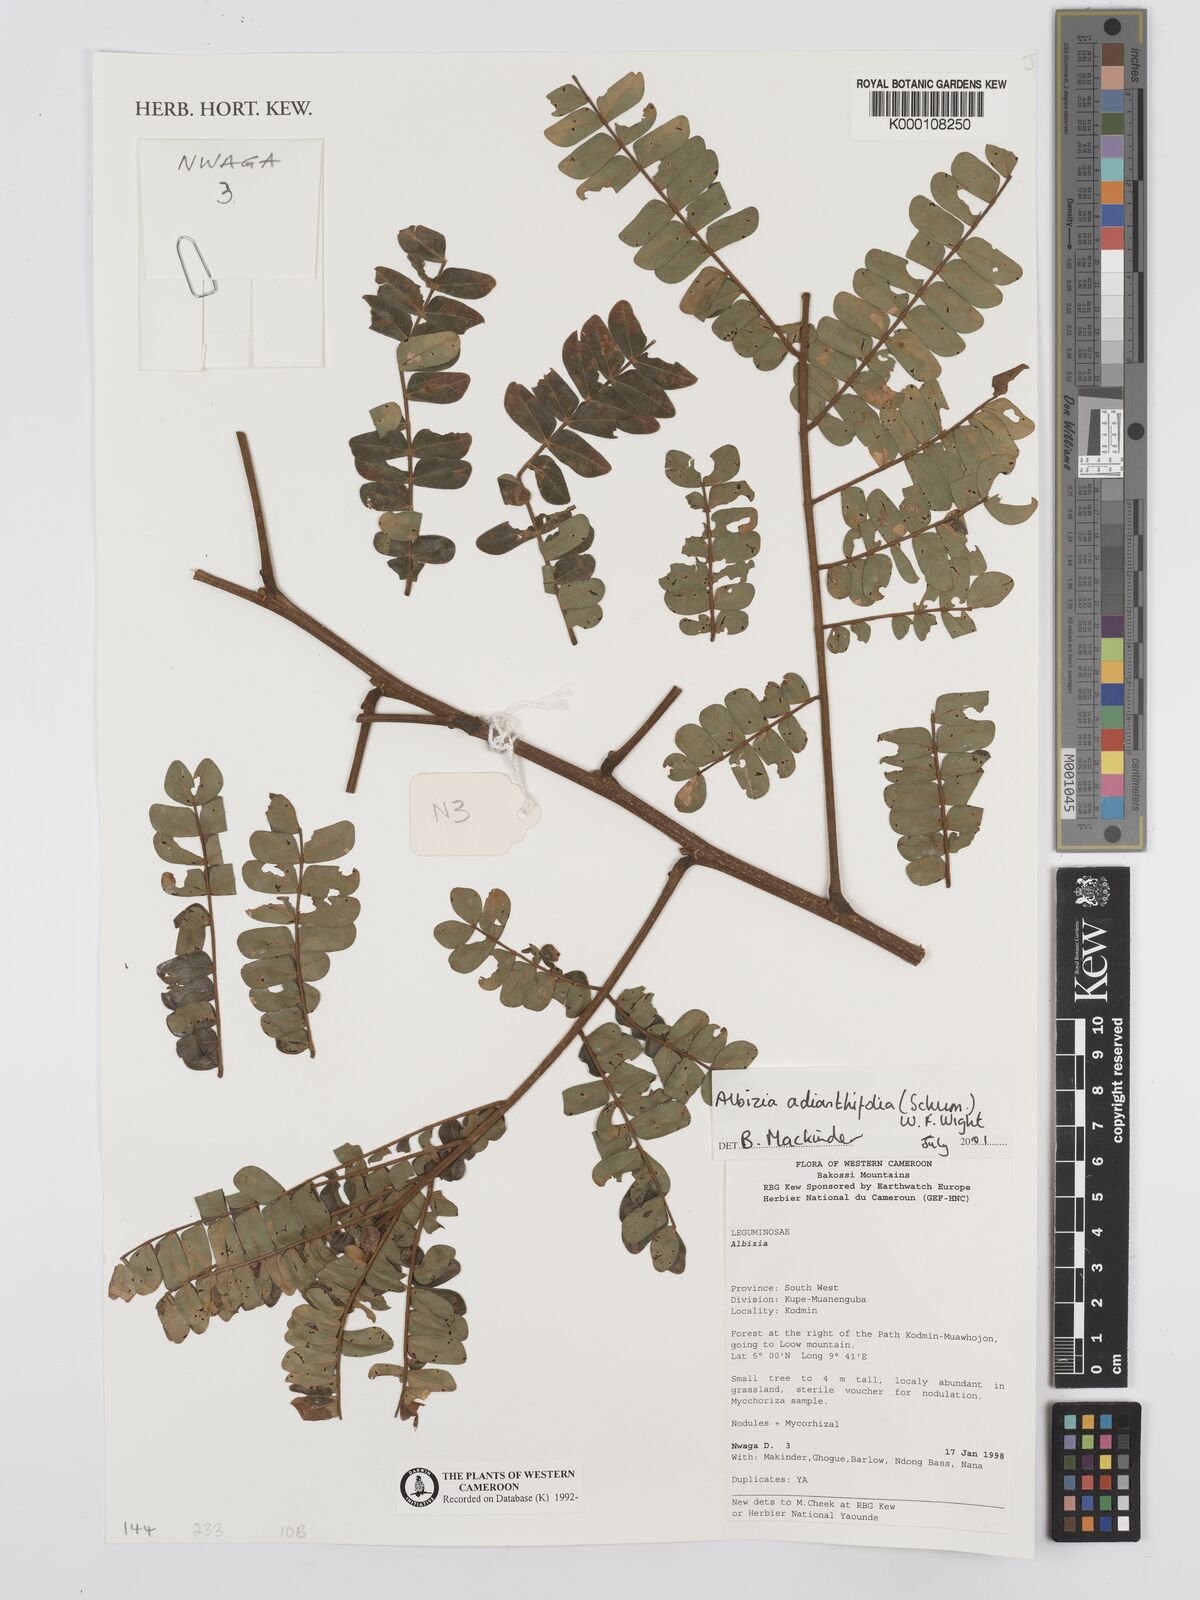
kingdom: Plantae
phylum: Tracheophyta
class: Magnoliopsida
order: Fabales
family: Fabaceae
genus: Albizia
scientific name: Albizia adianthifolia
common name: West african albizia
